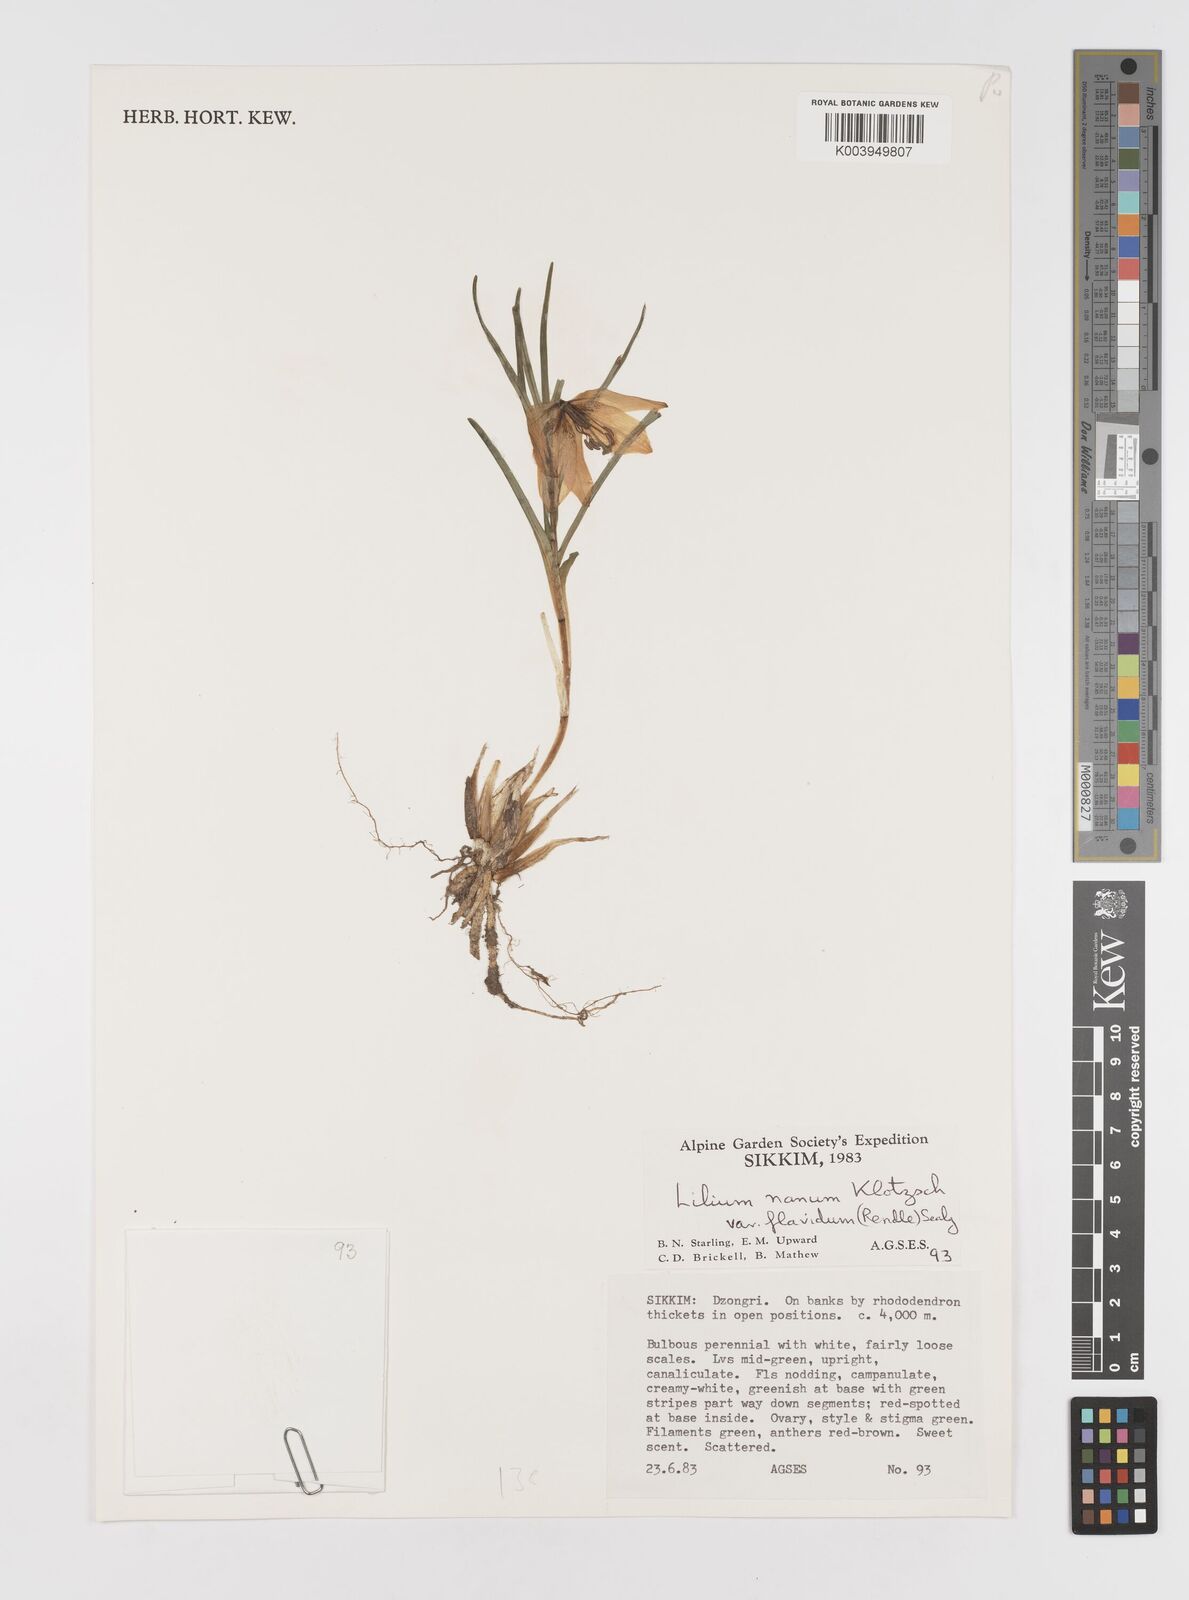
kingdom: Plantae
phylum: Tracheophyta
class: Liliopsida
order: Liliales
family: Liliaceae
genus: Lilium
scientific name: Lilium nanum
